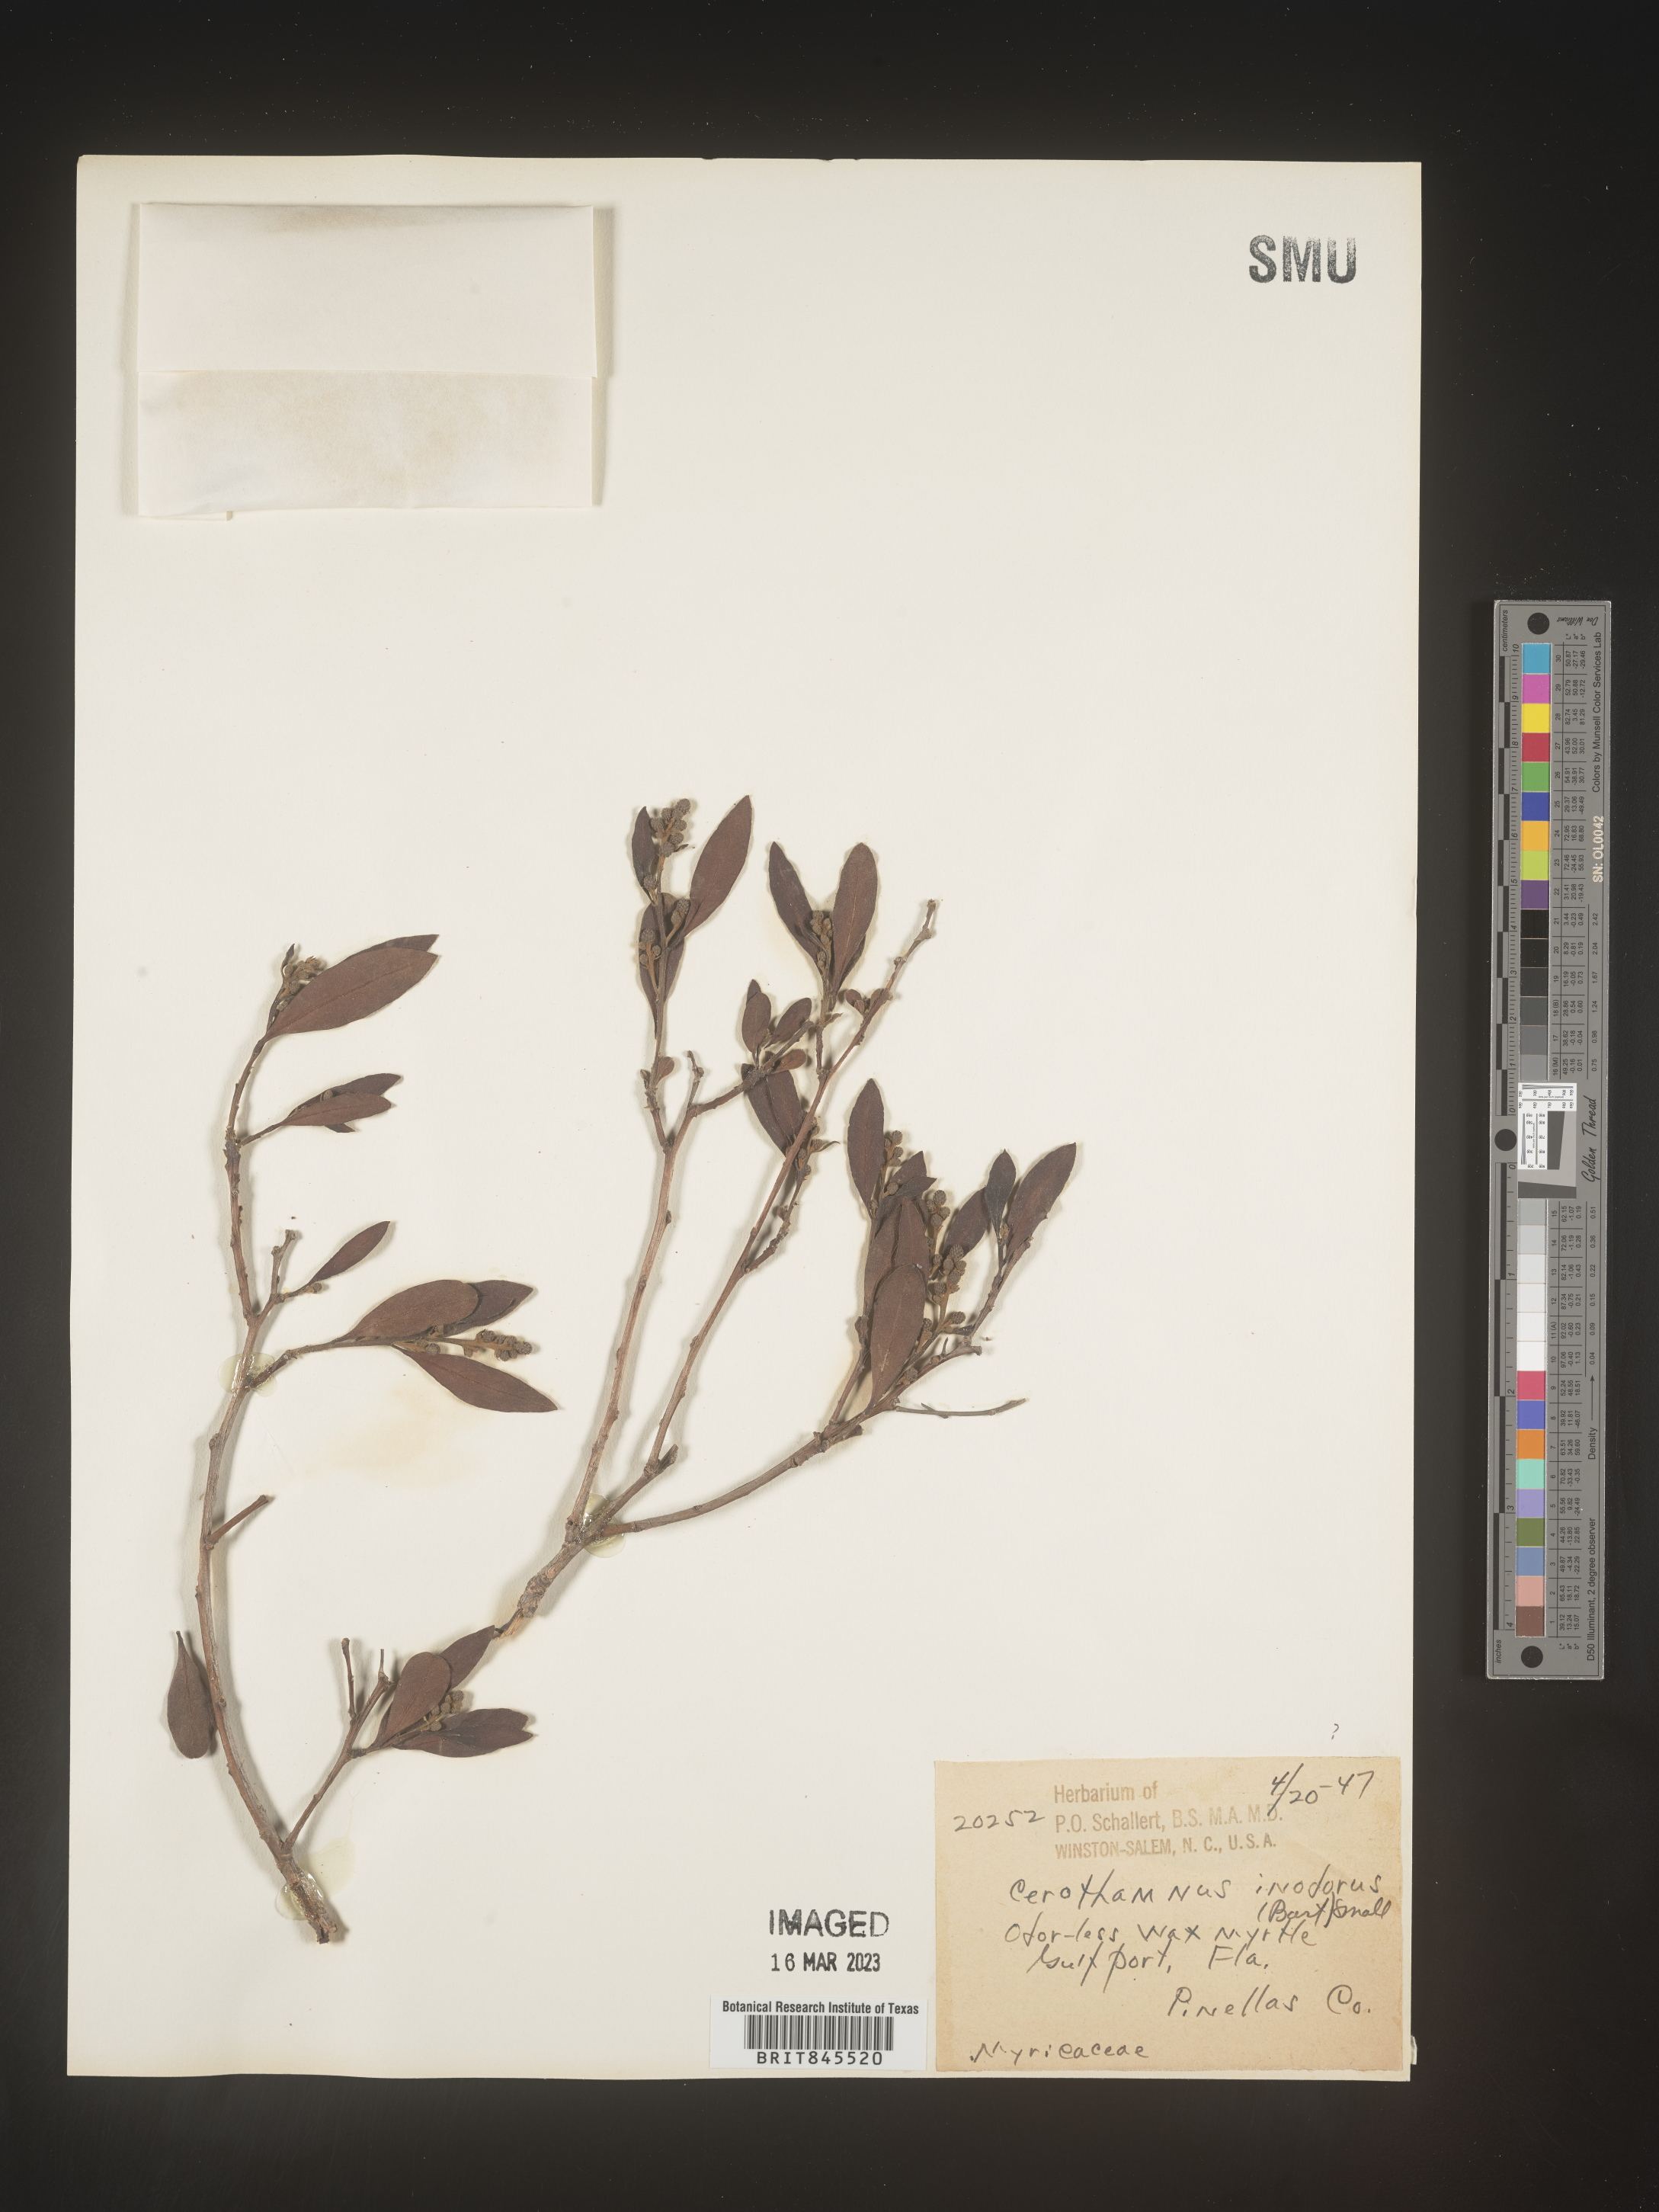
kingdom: Plantae
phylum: Tracheophyta
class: Magnoliopsida
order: Fagales
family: Myricaceae
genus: Myrica
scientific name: Myrica
